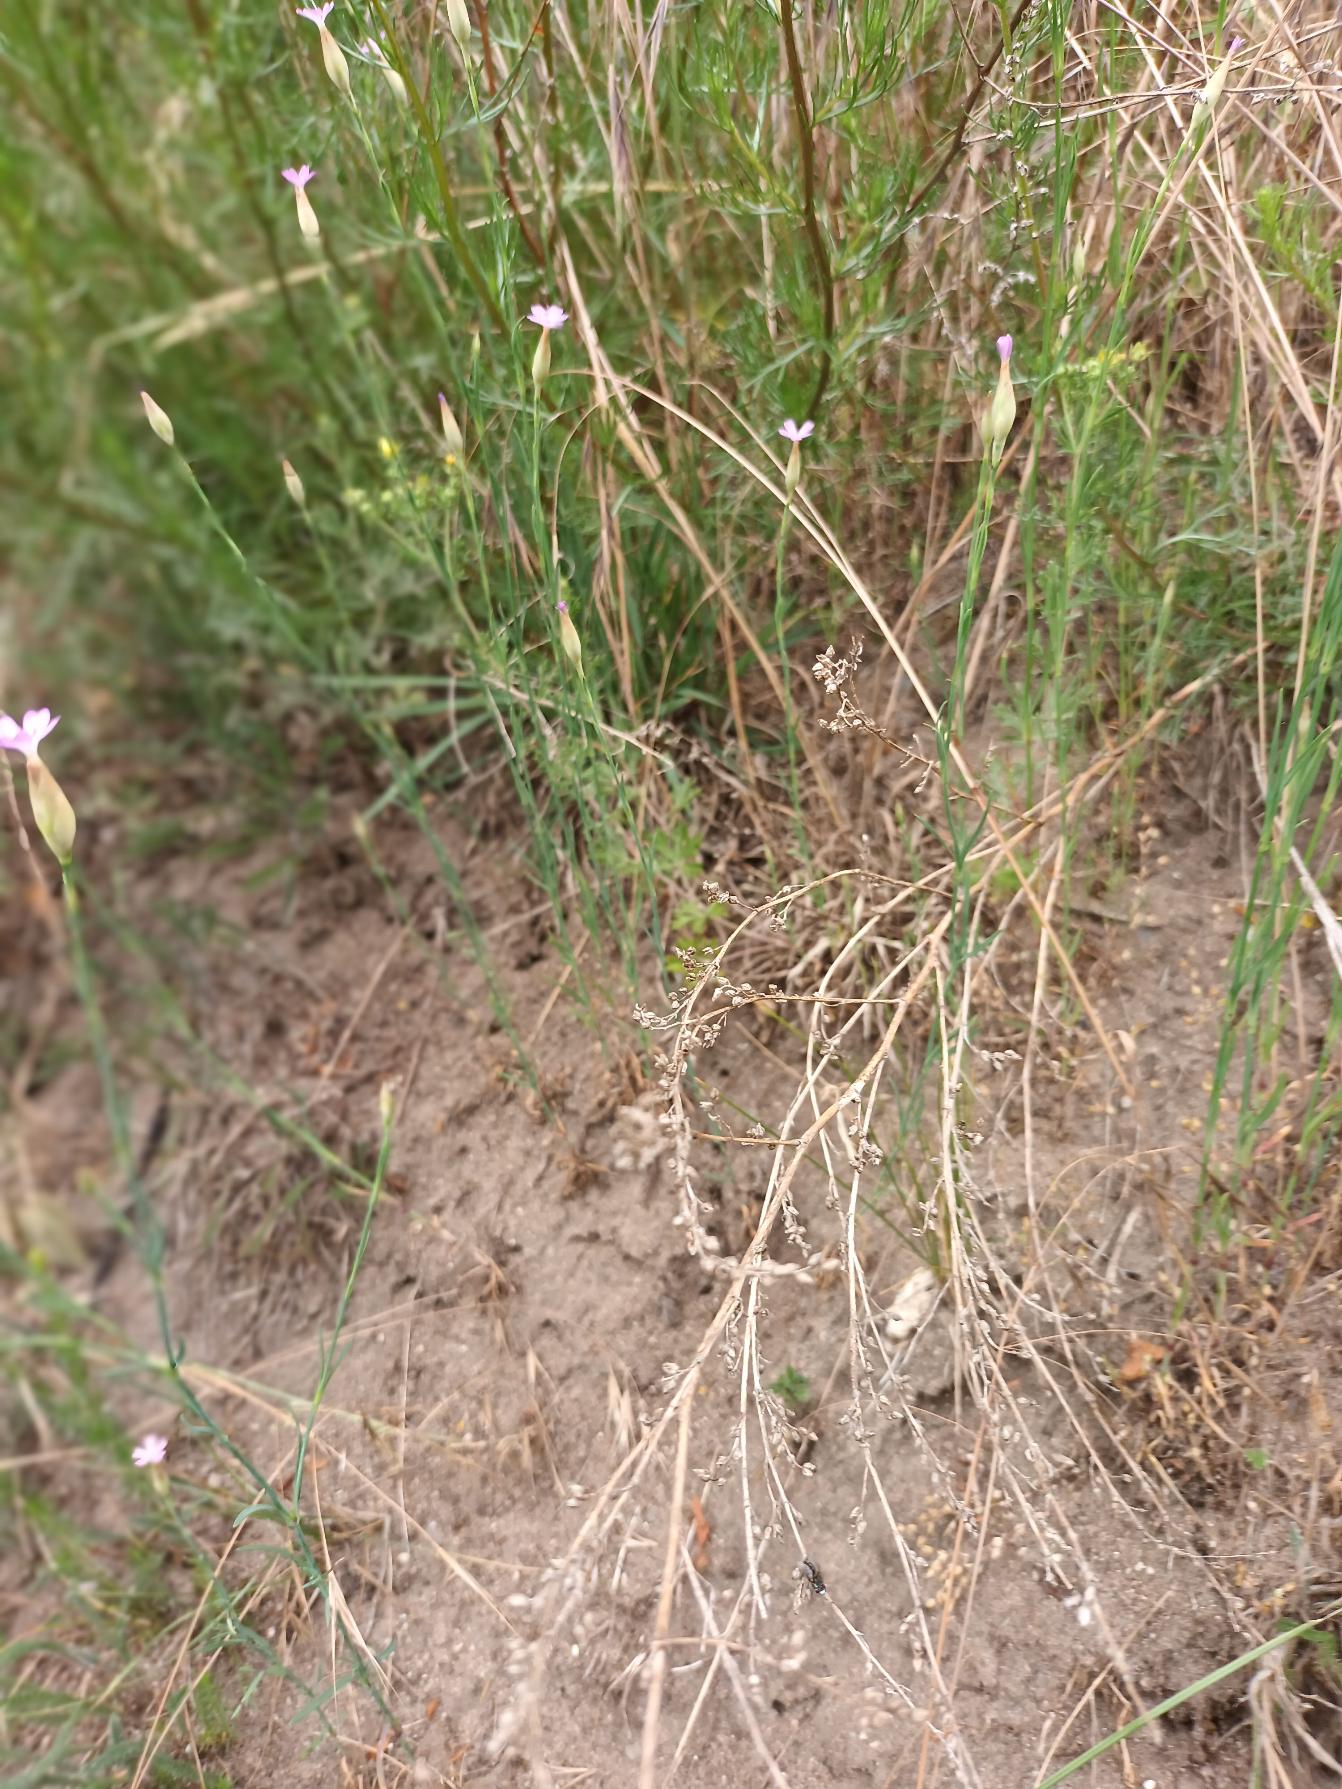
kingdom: Plantae
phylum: Tracheophyta
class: Magnoliopsida
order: Caryophyllales
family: Caryophyllaceae
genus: Petrorhagia
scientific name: Petrorhagia prolifera
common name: Knopnellike
